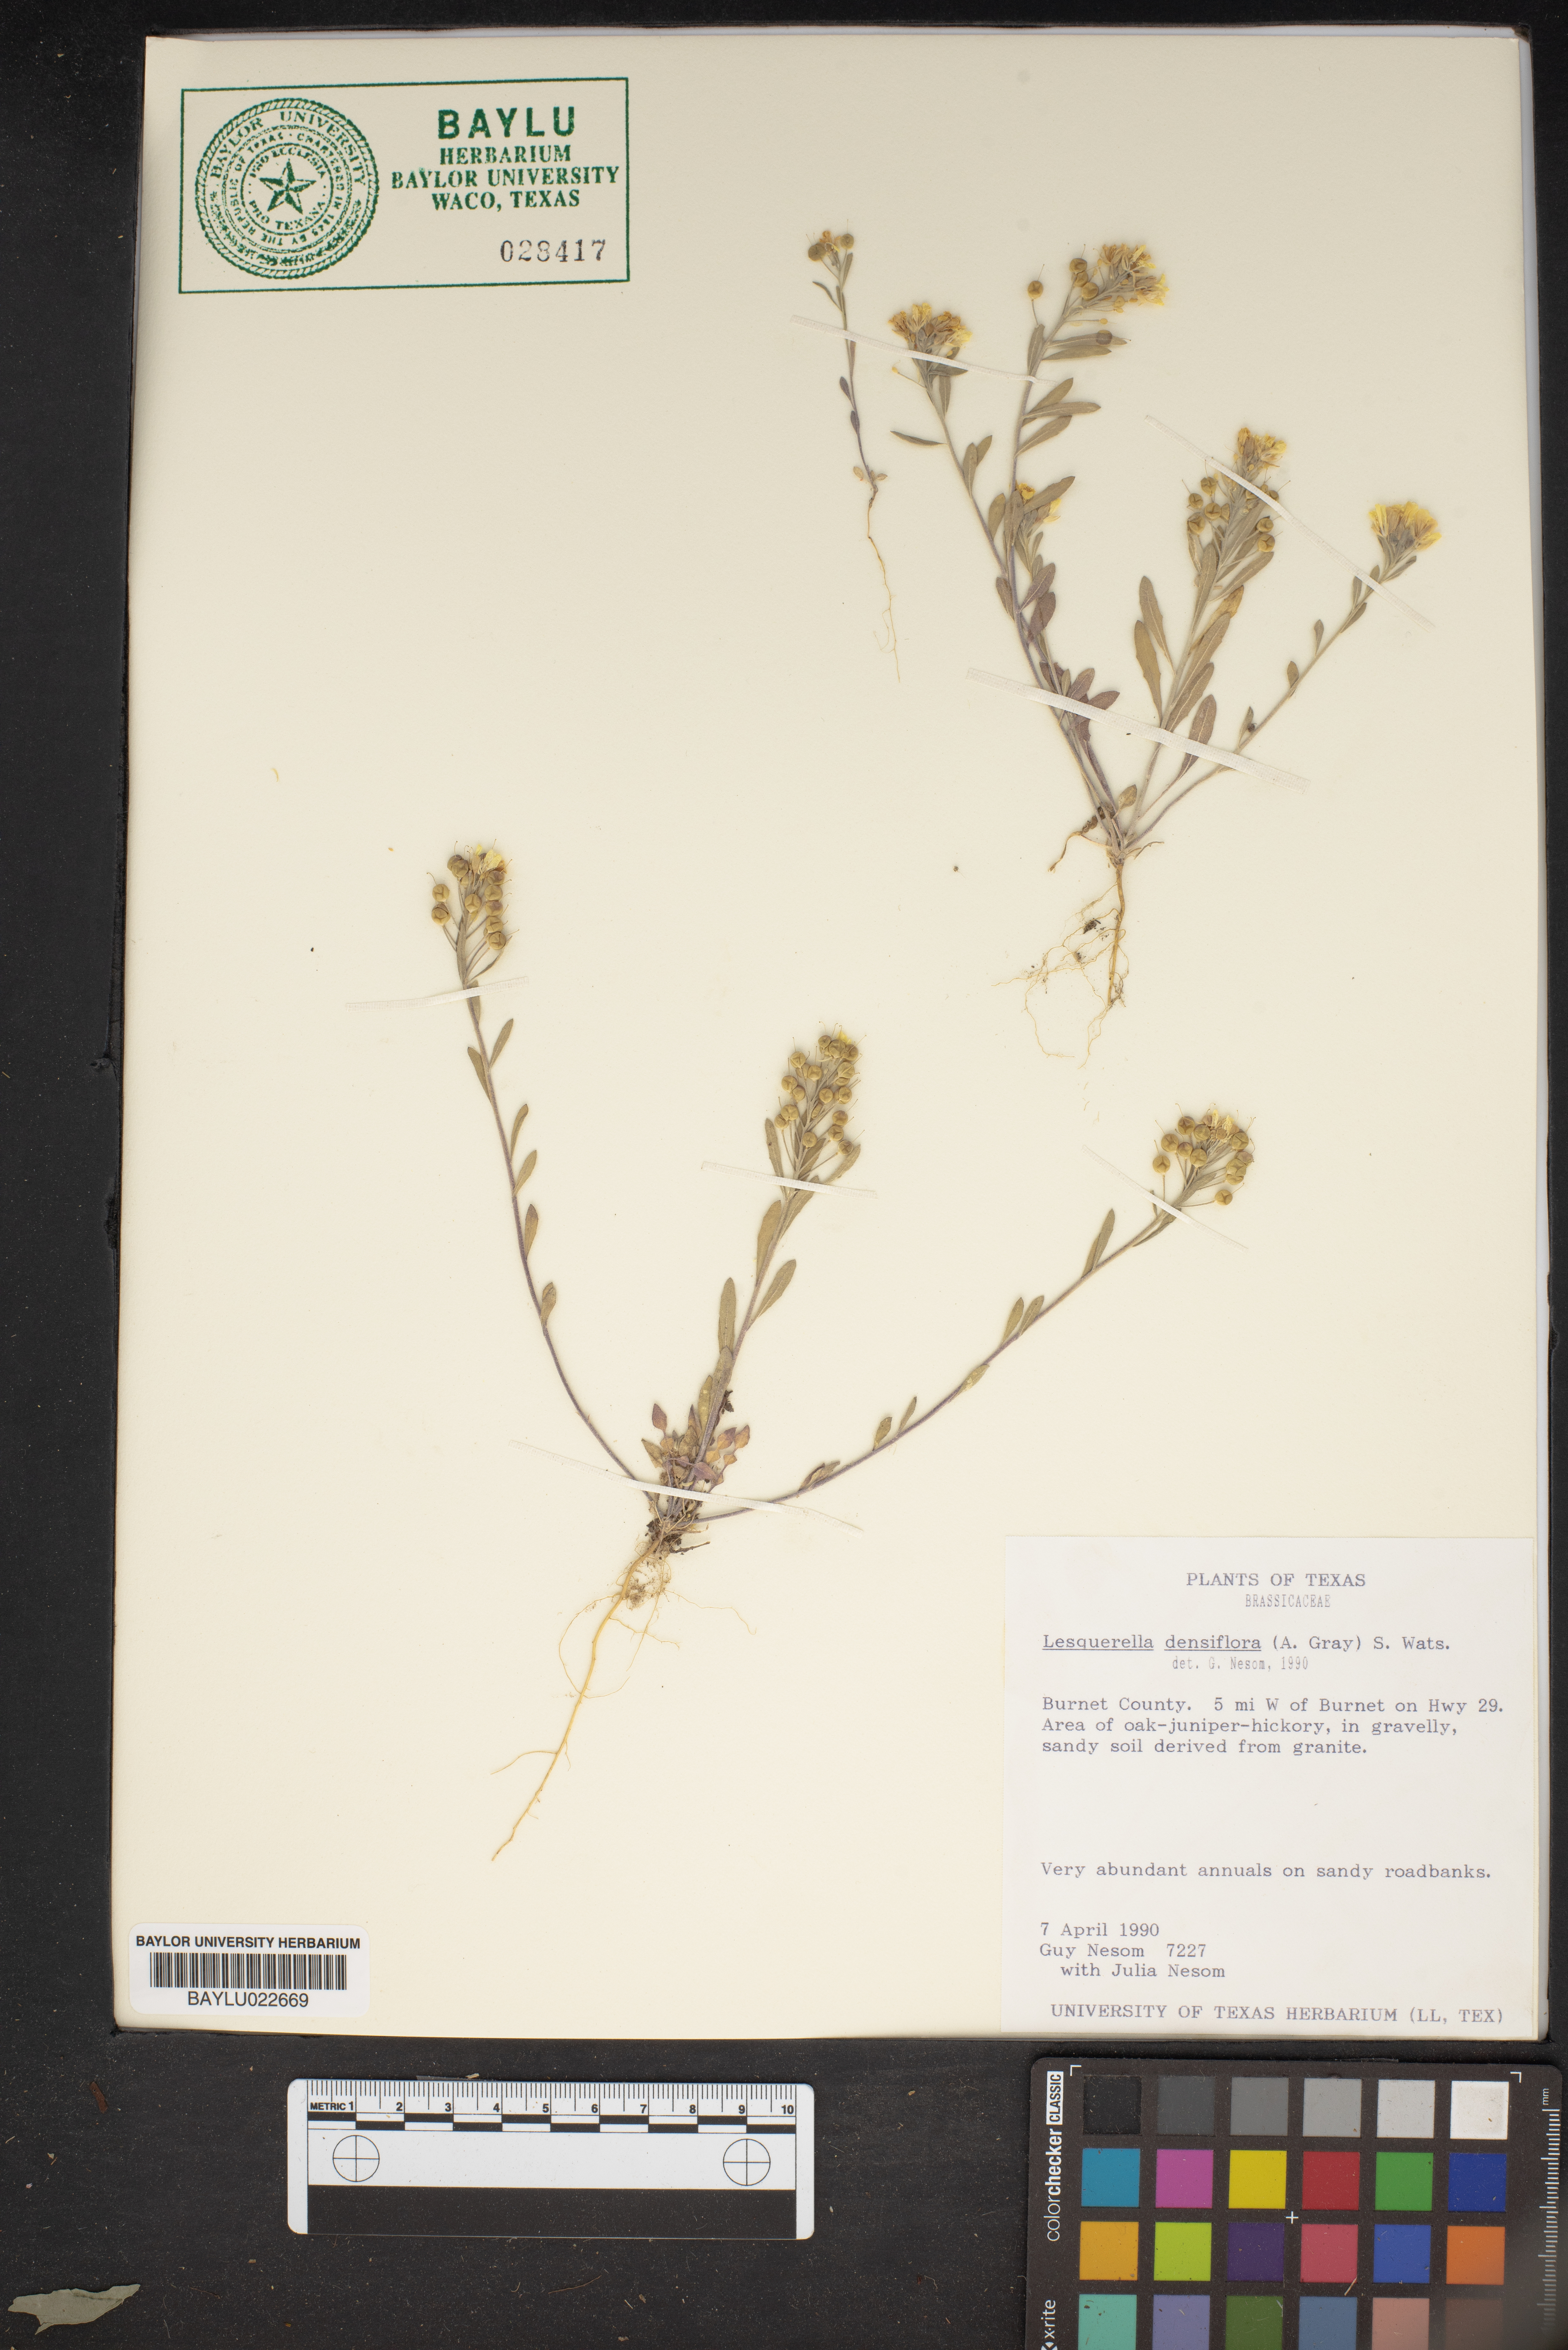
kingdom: Plantae
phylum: Tracheophyta
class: Magnoliopsida
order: Brassicales
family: Brassicaceae
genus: Physaria
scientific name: Physaria densiflora
